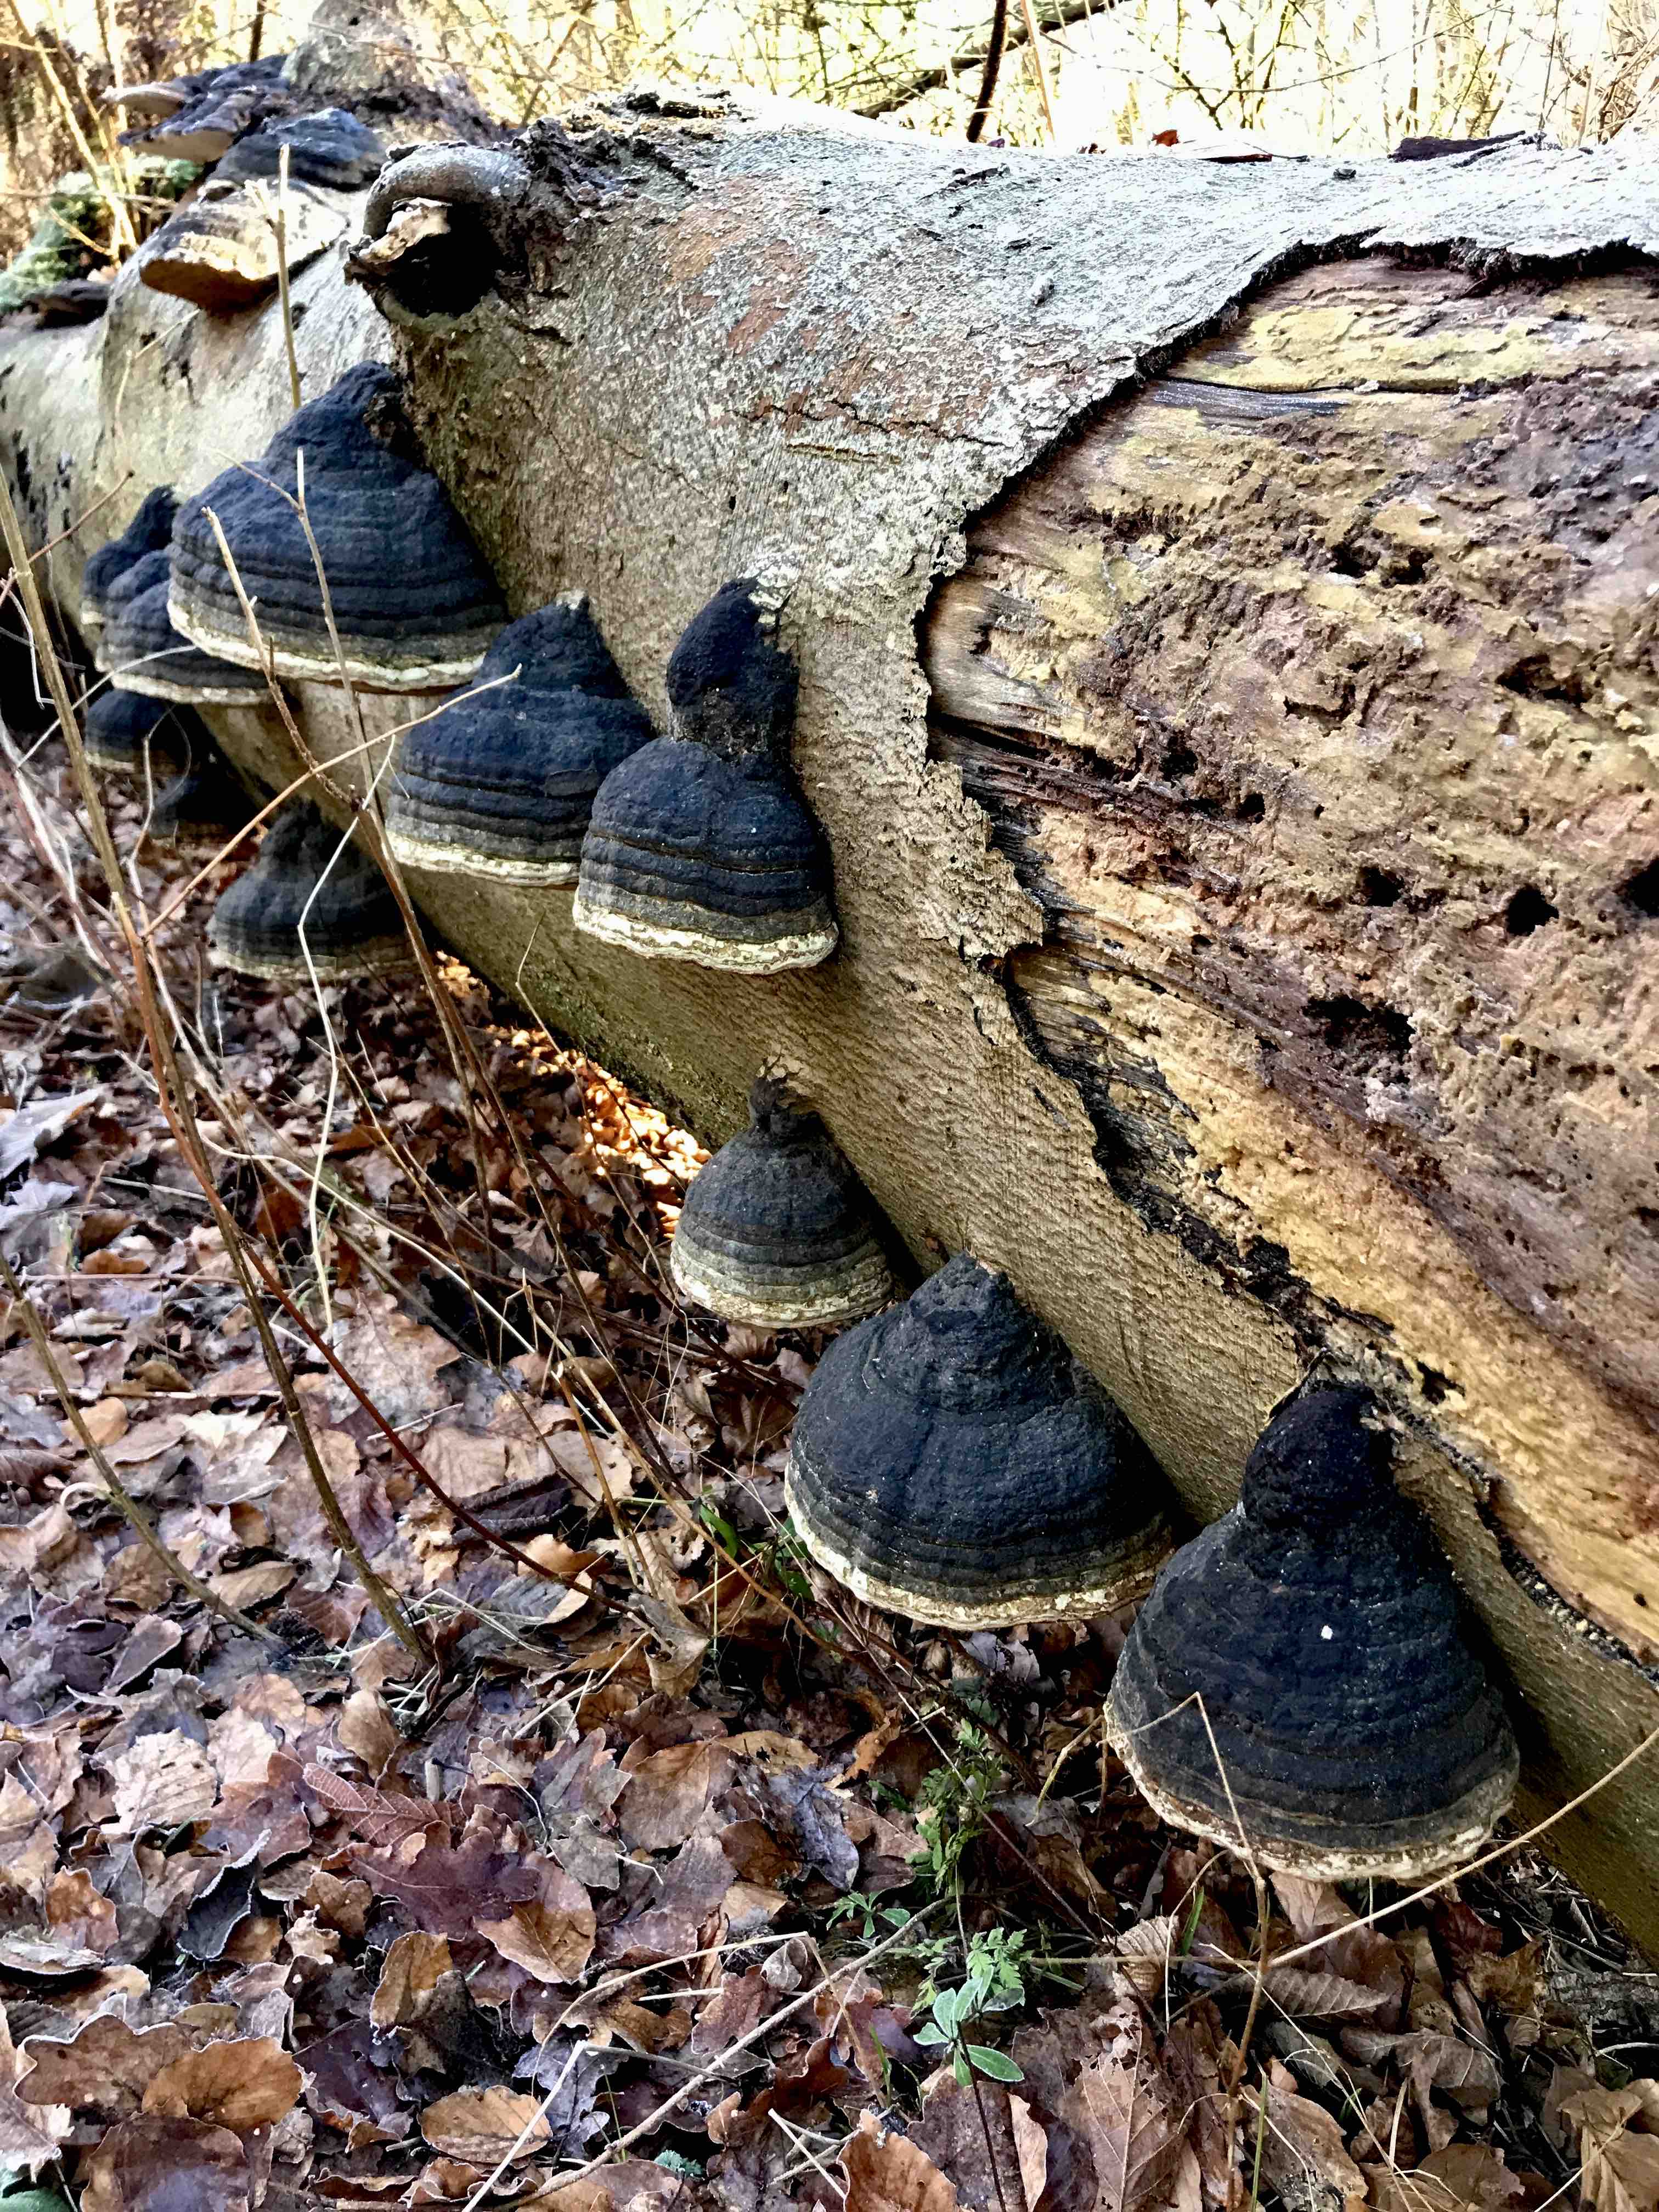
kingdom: Fungi
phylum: Basidiomycota
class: Agaricomycetes
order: Polyporales
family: Polyporaceae
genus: Fomes
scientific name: Fomes fomentarius
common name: tøndersvamp
